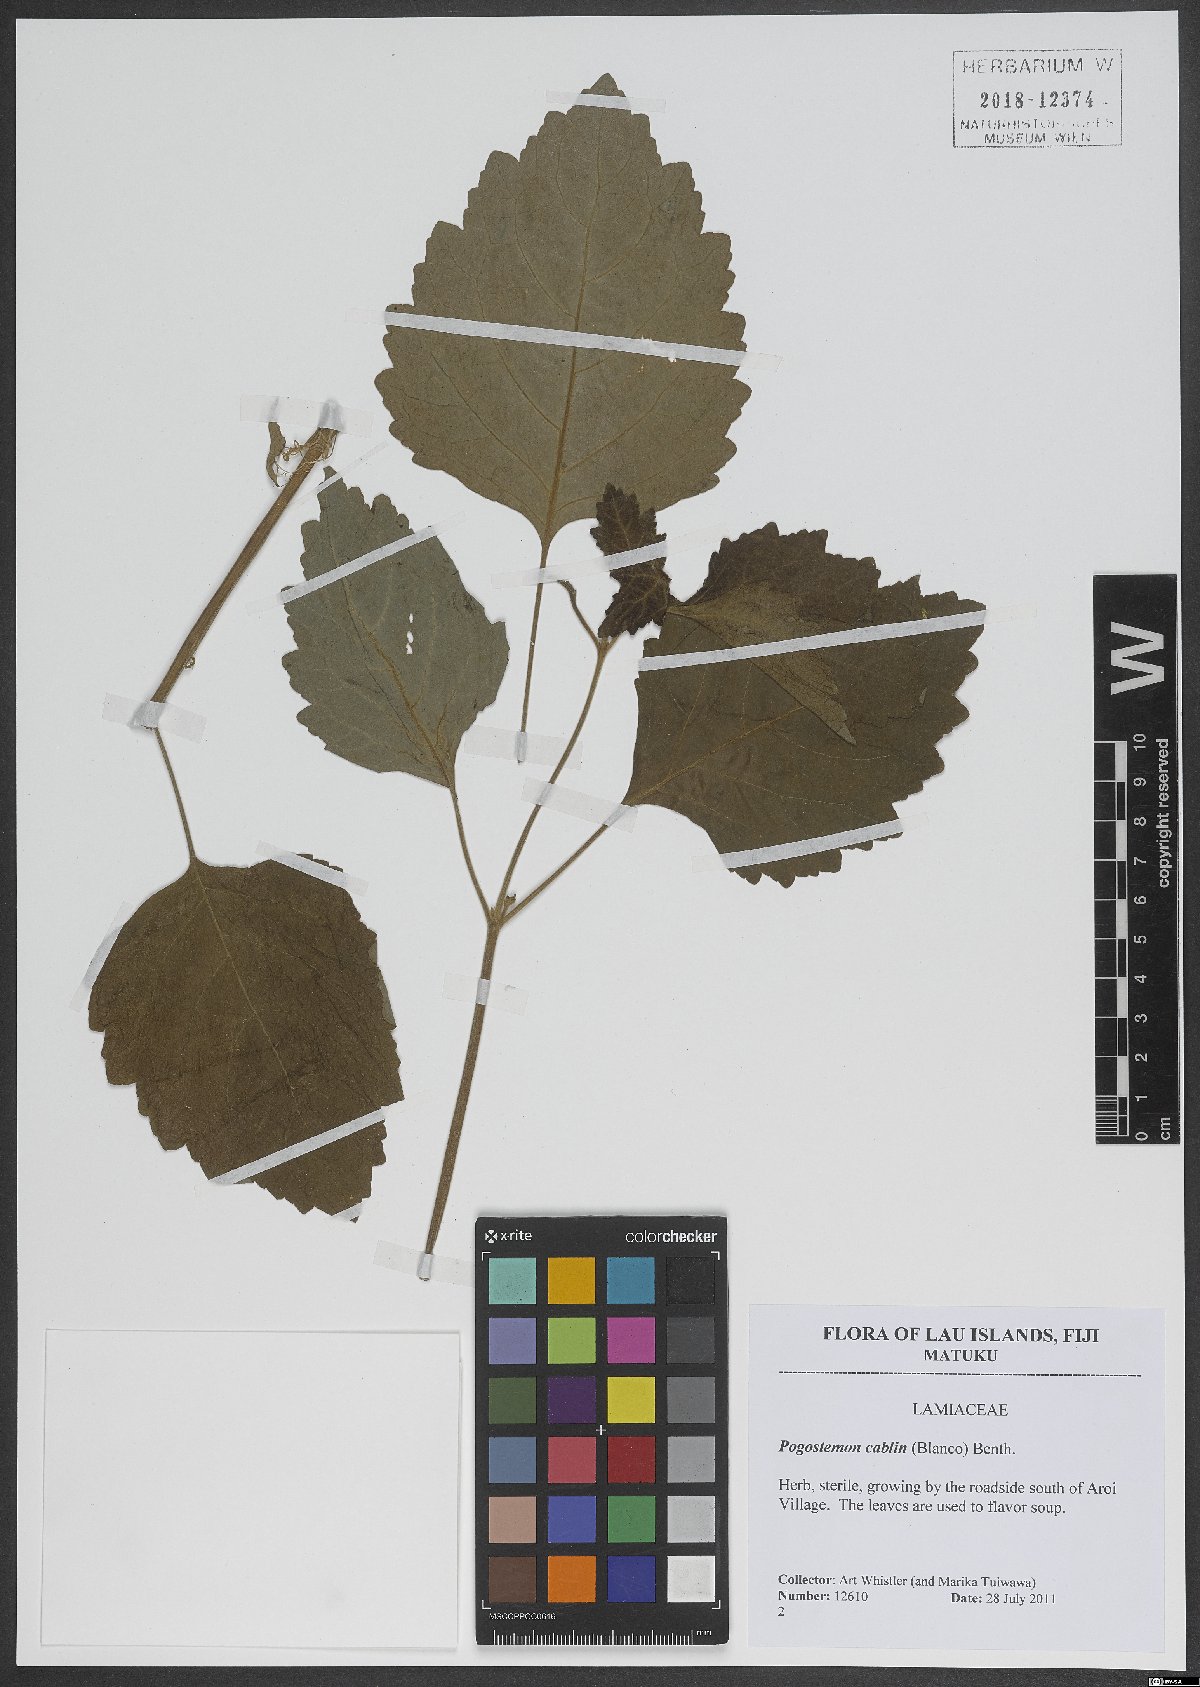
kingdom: Plantae
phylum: Tracheophyta
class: Magnoliopsida
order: Lamiales
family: Lamiaceae
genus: Pogostemon
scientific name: Pogostemon cablin
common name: Patchouli-plant
